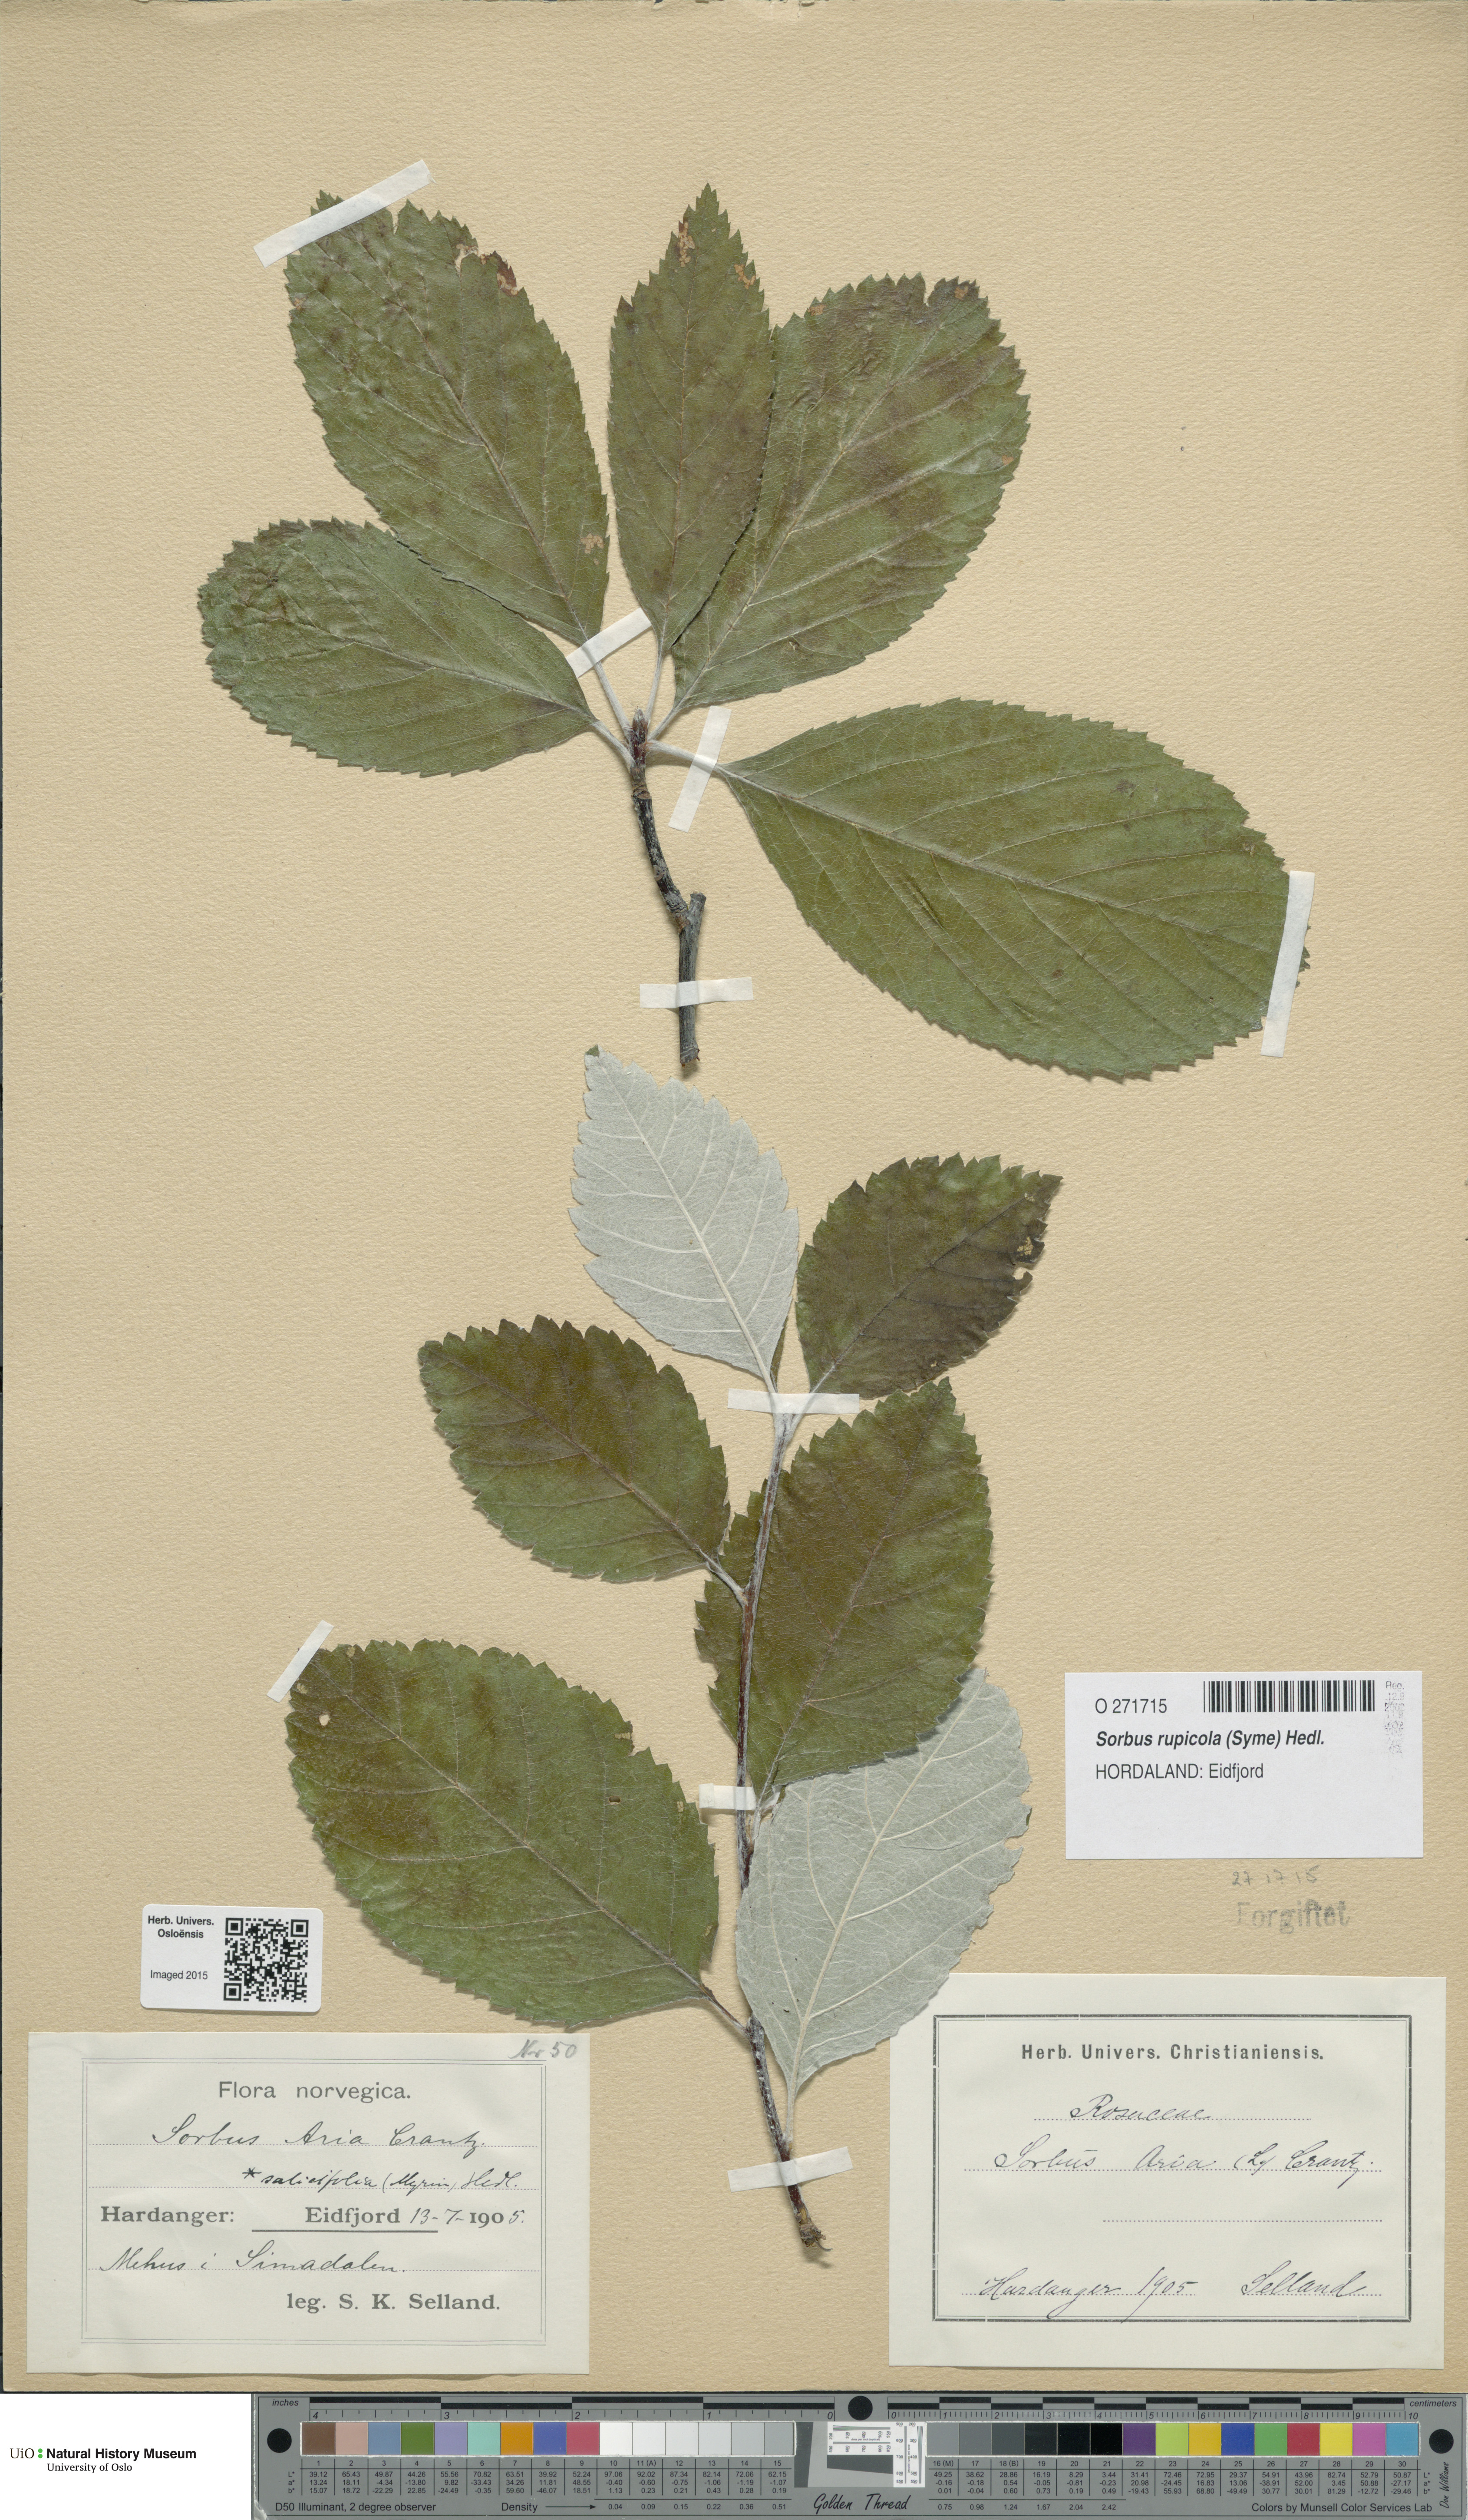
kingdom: Plantae
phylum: Tracheophyta
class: Magnoliopsida
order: Rosales
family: Rosaceae
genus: Aria
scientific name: Aria rupicola
